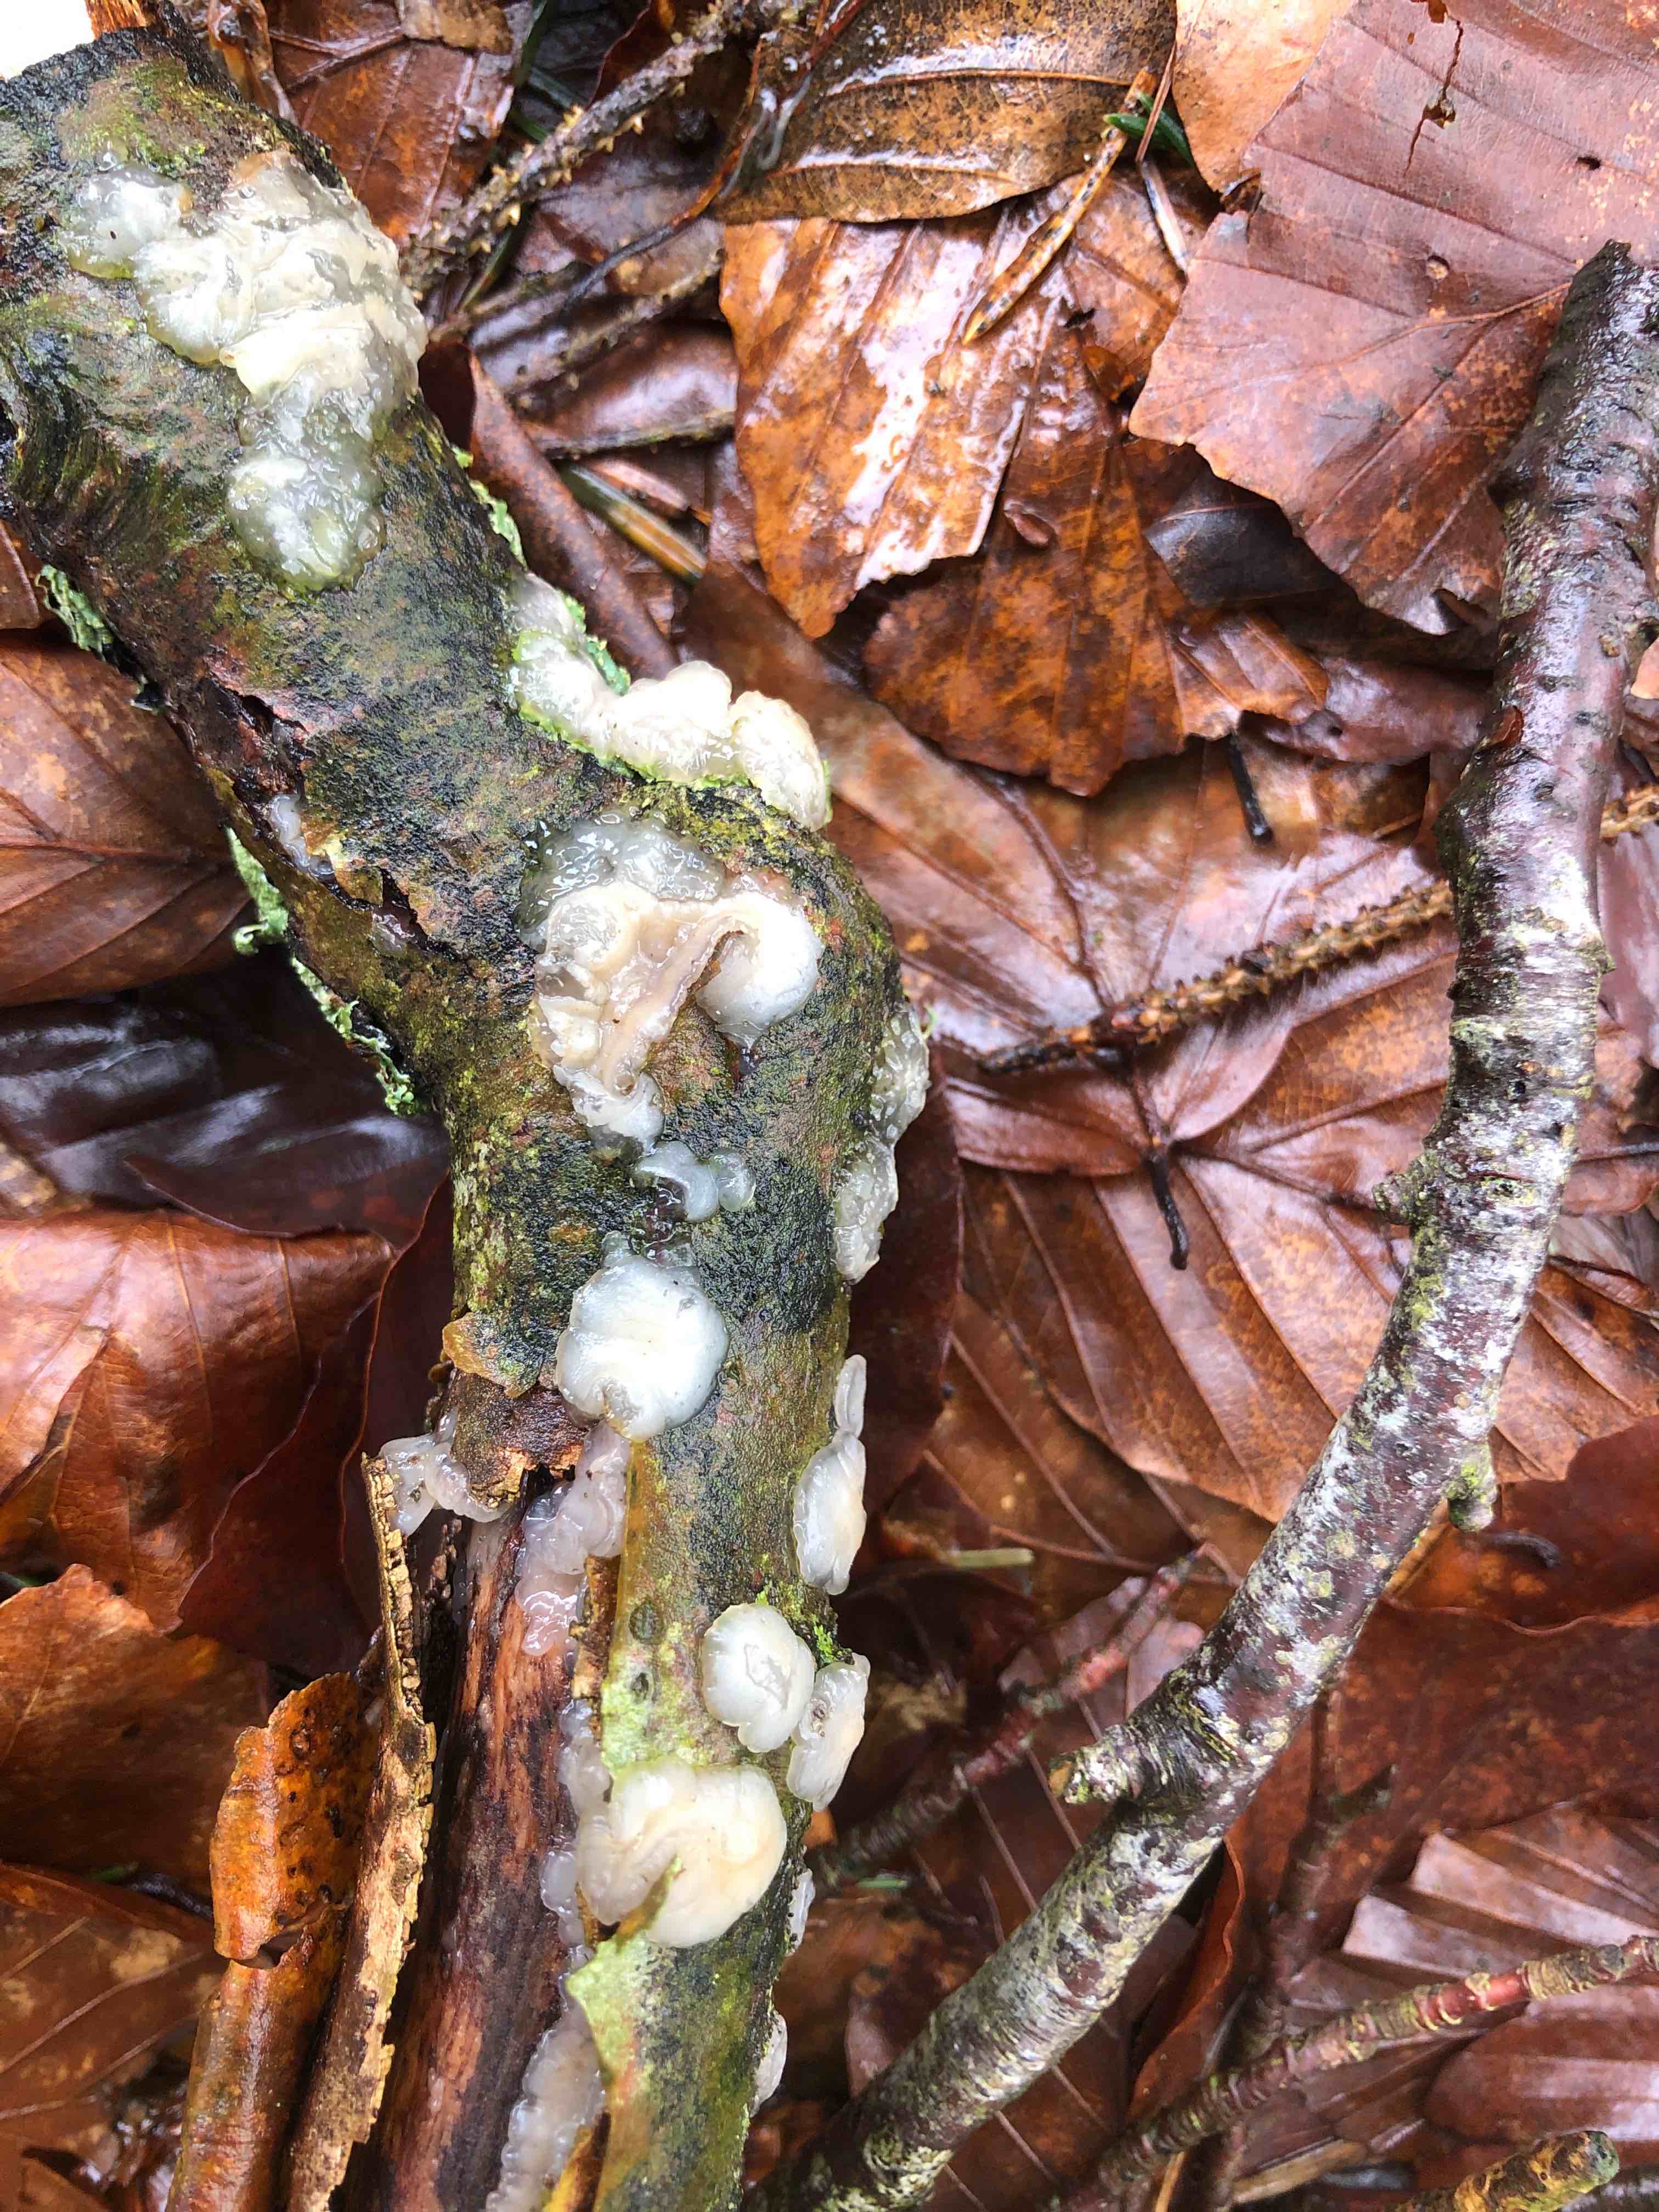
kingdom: Fungi
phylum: Basidiomycota
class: Agaricomycetes
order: Auriculariales
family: Auriculariaceae
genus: Exidia
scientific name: Exidia thuretiana
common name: hvidlig bævretop
